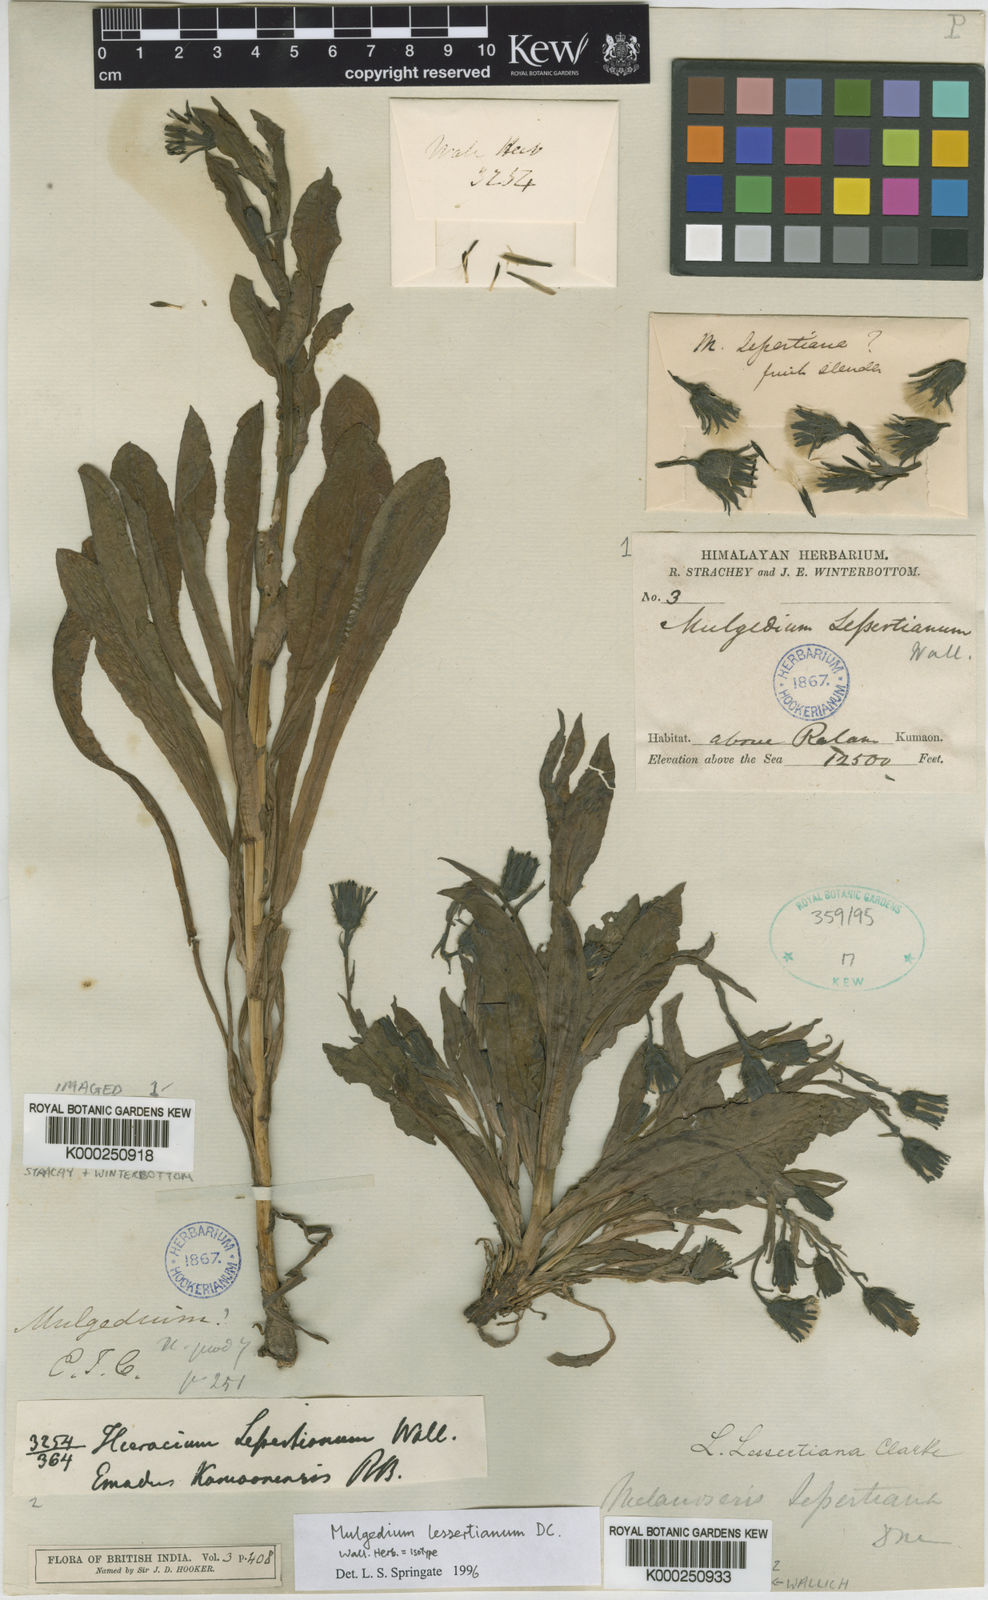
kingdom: Plantae
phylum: Tracheophyta
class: Magnoliopsida
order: Asterales
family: Asteraceae
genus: Melanoseris
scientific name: Melanoseris lessertiana
